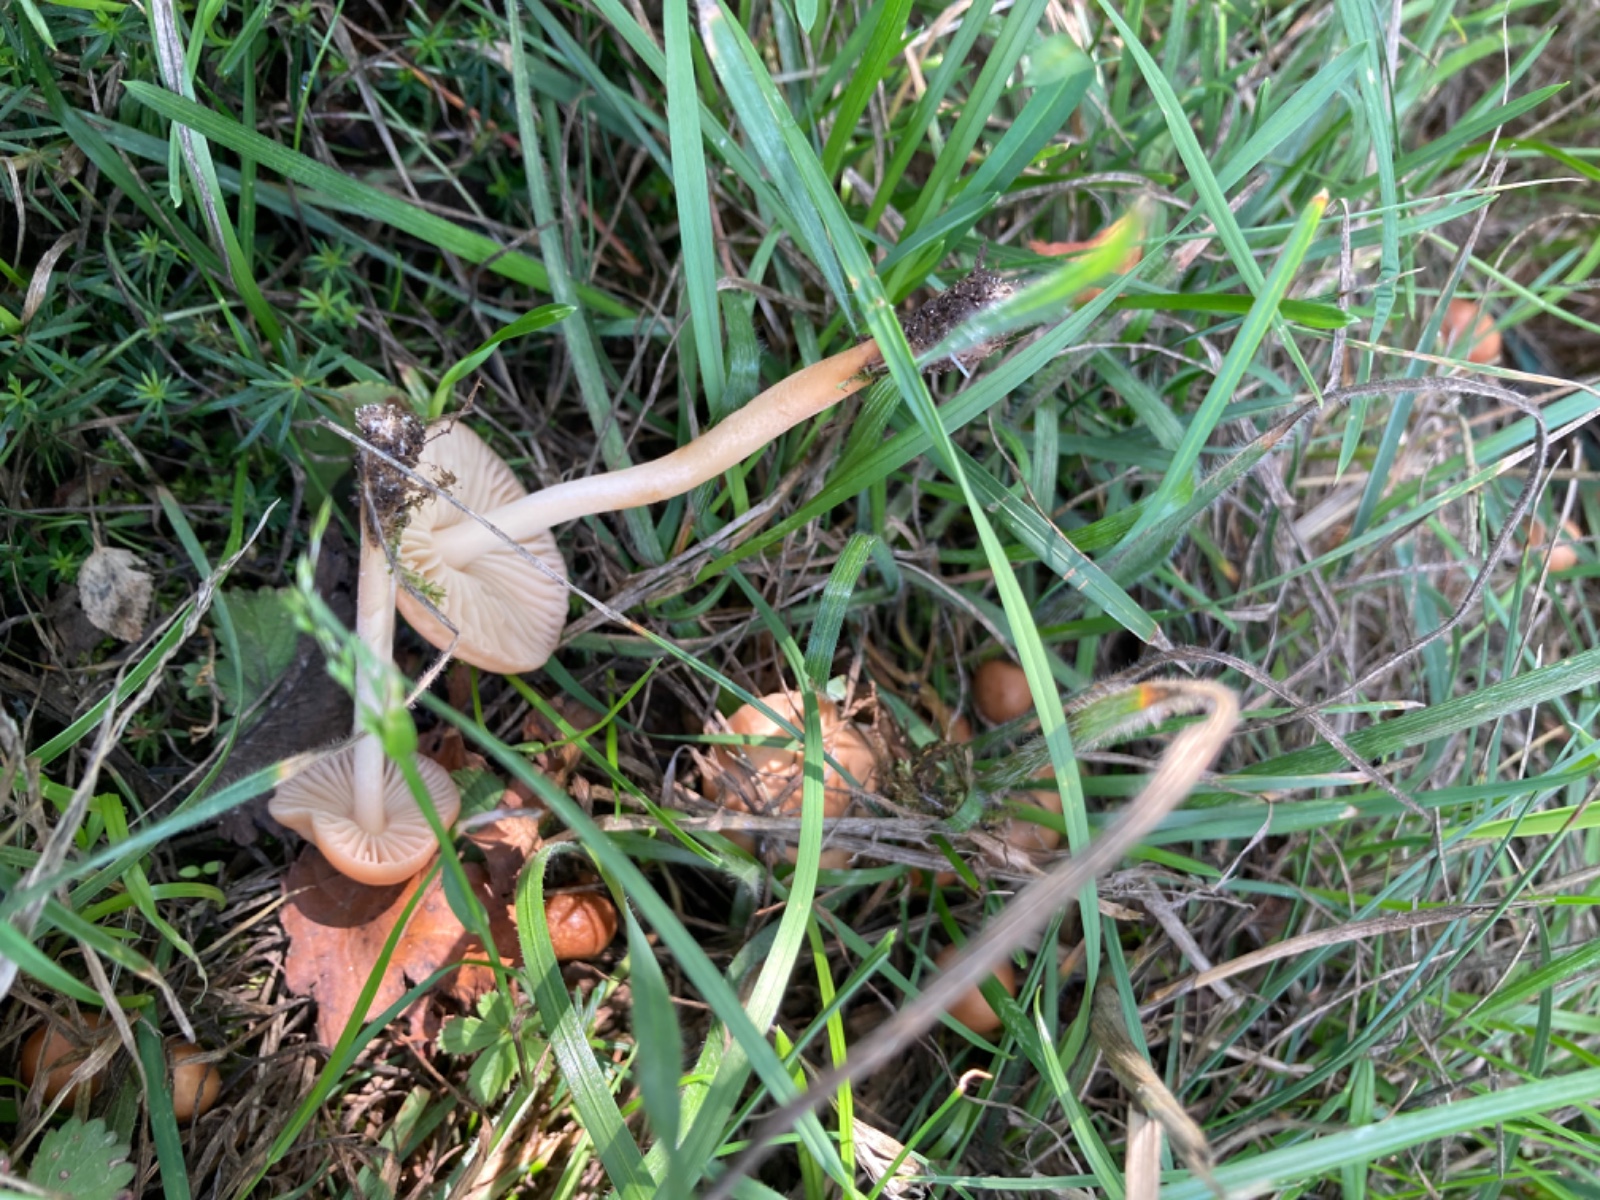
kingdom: Fungi
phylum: Basidiomycota
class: Agaricomycetes
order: Agaricales
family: Marasmiaceae
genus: Marasmius
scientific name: Marasmius oreades
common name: elledans-bruskhat
